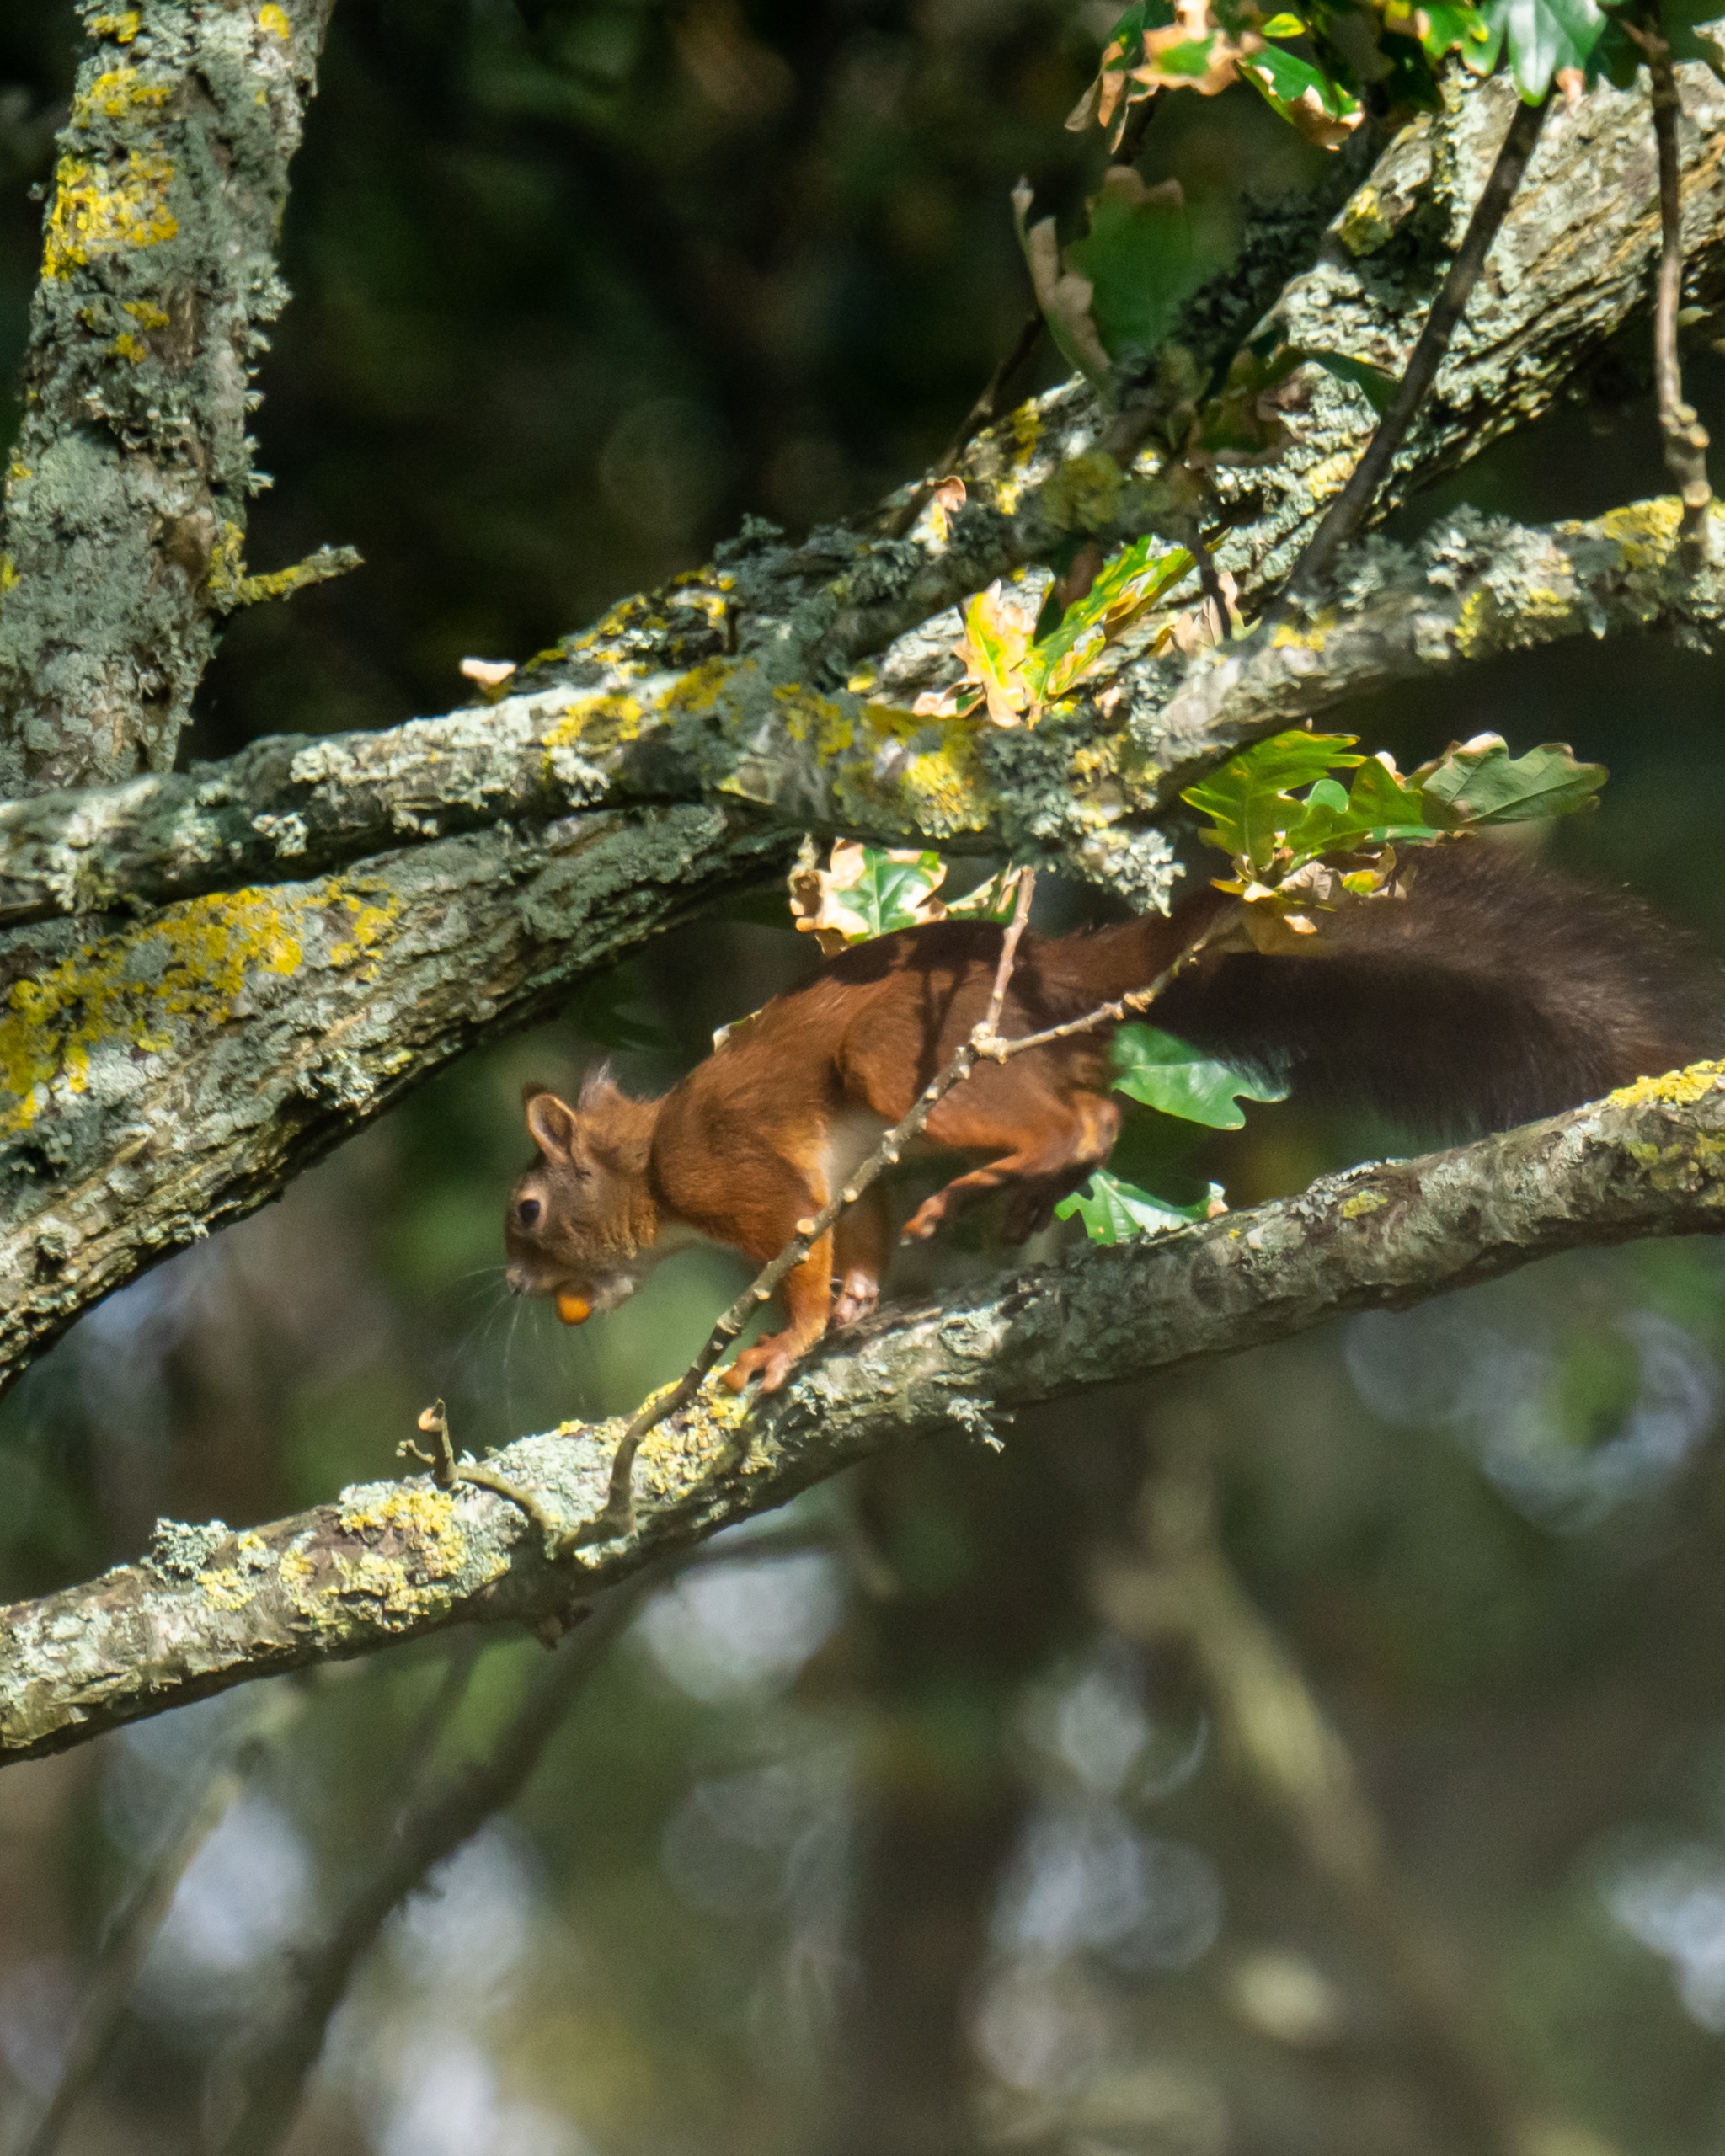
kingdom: Animalia
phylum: Chordata
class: Mammalia
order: Rodentia
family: Sciuridae
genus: Sciurus
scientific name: Sciurus vulgaris
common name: Egern
